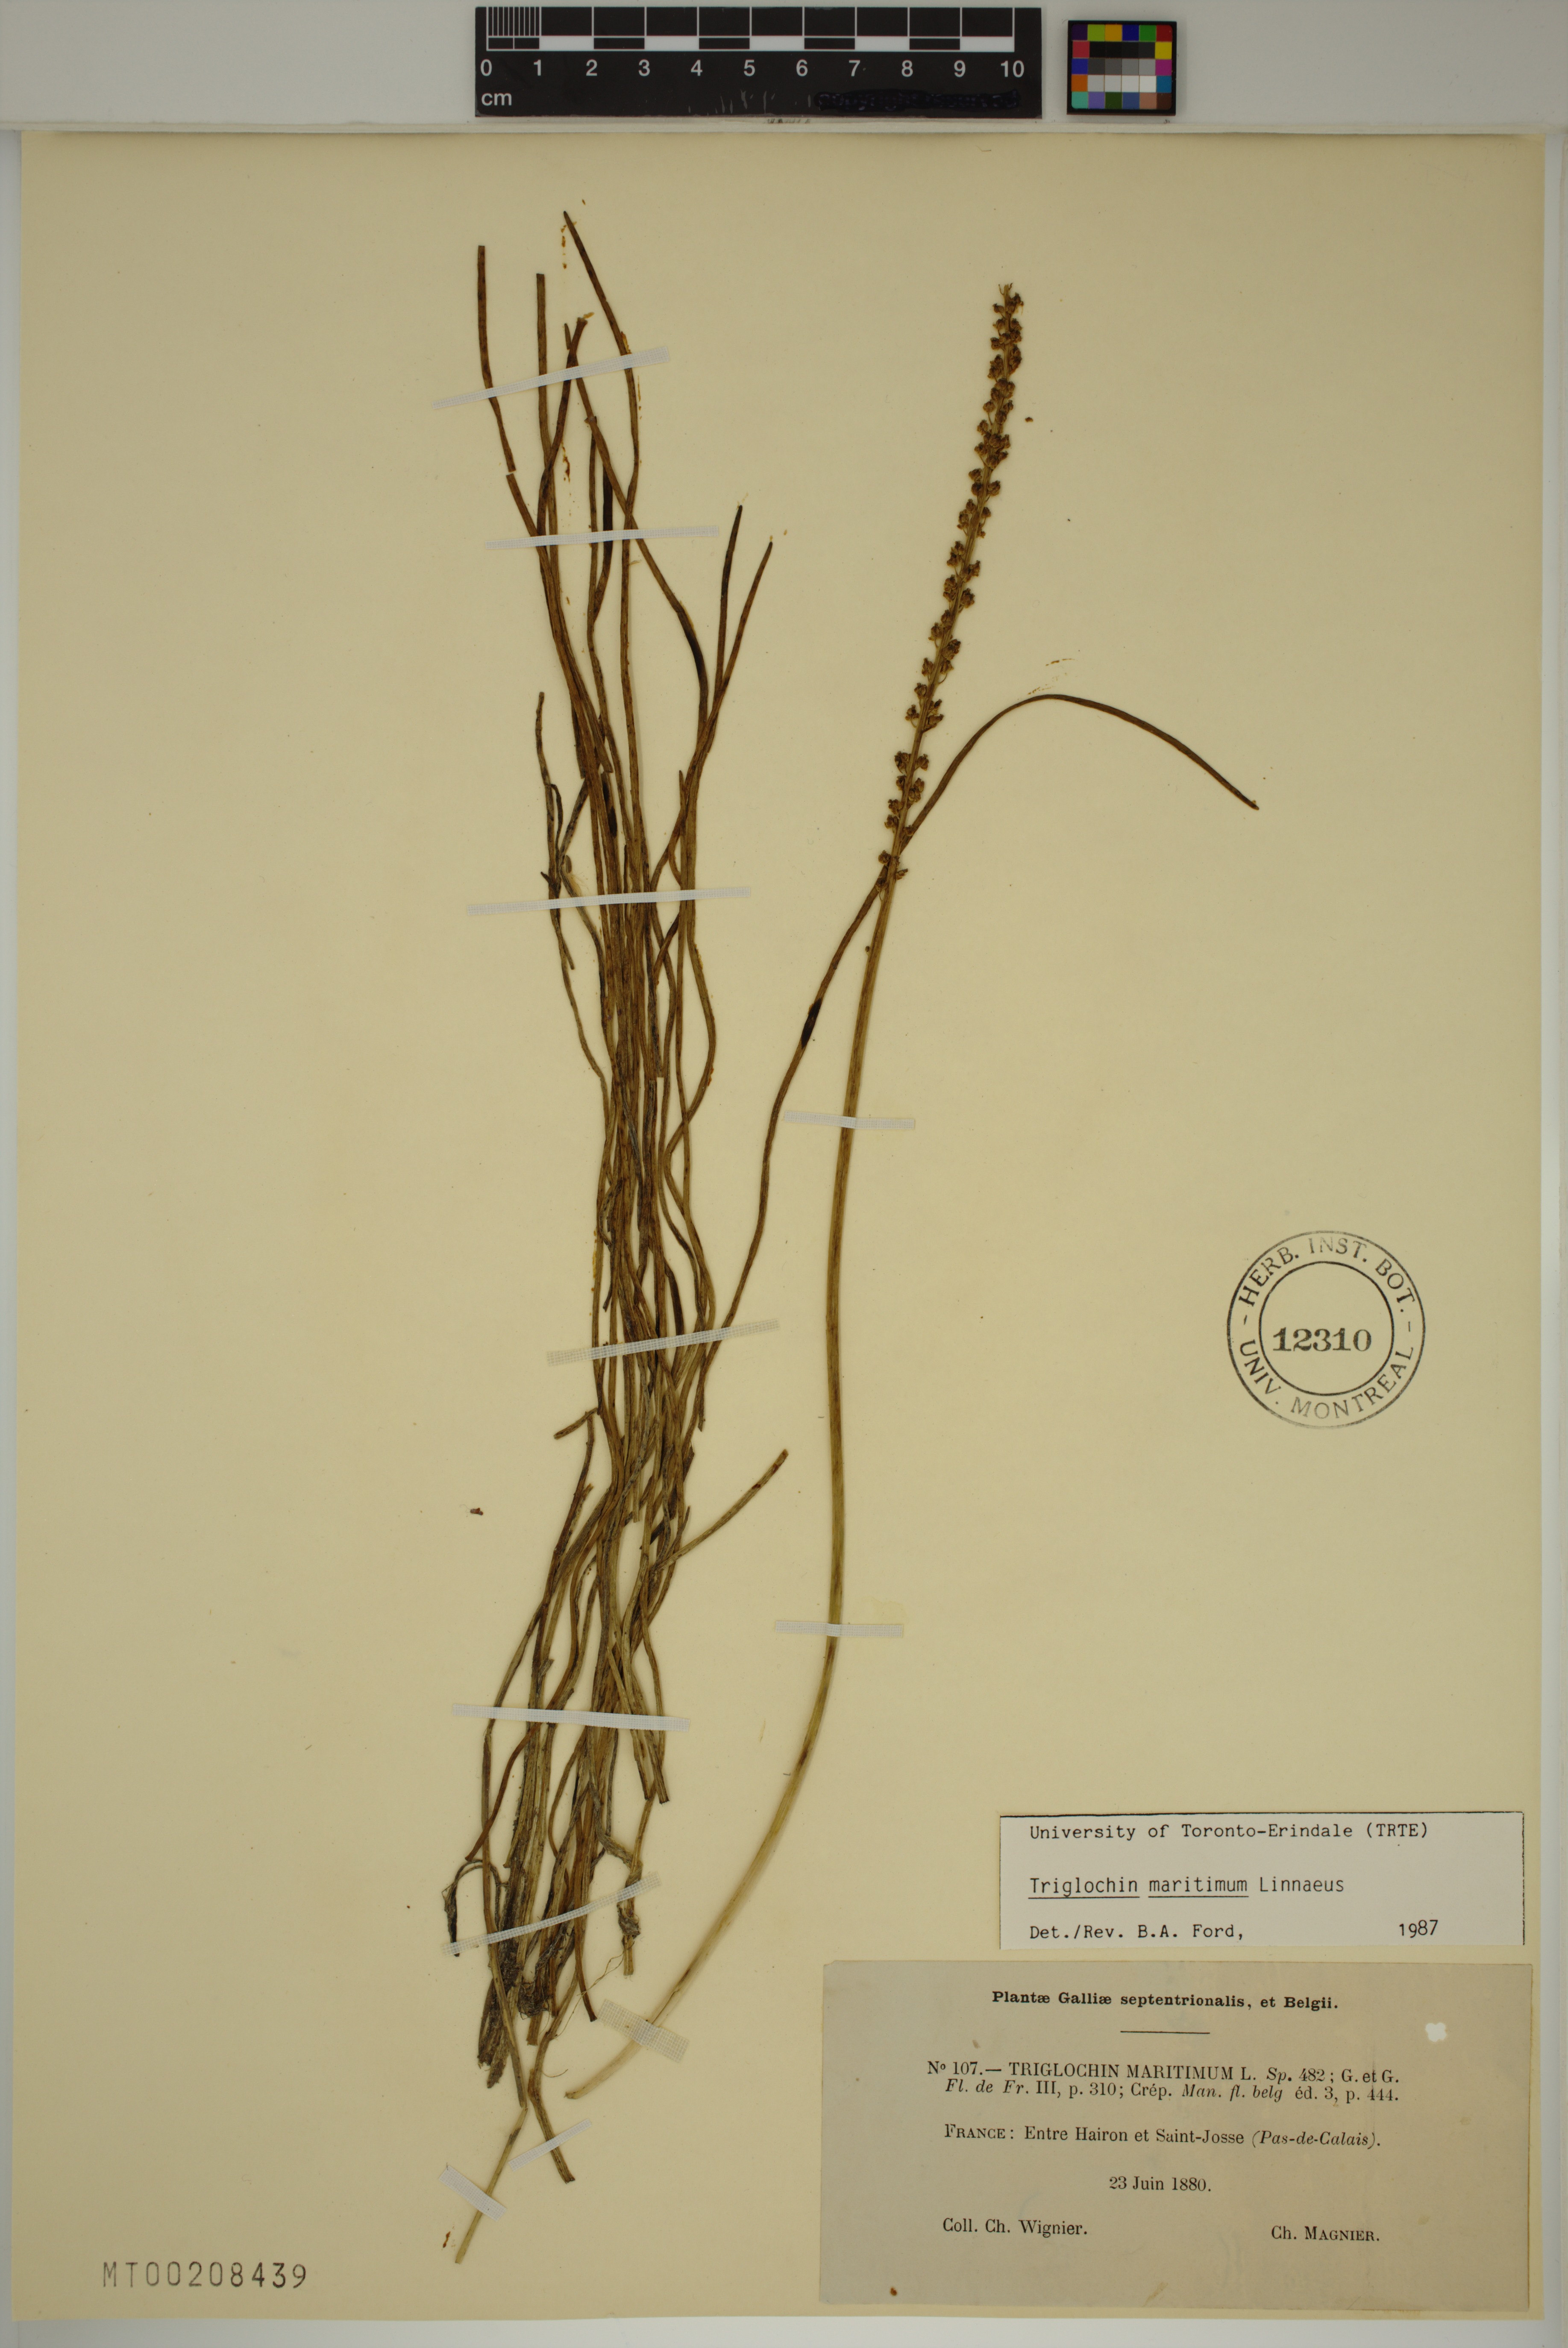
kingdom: Plantae
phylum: Tracheophyta
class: Liliopsida
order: Alismatales
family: Juncaginaceae
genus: Triglochin
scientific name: Triglochin maritima
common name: Sea arrowgrass
